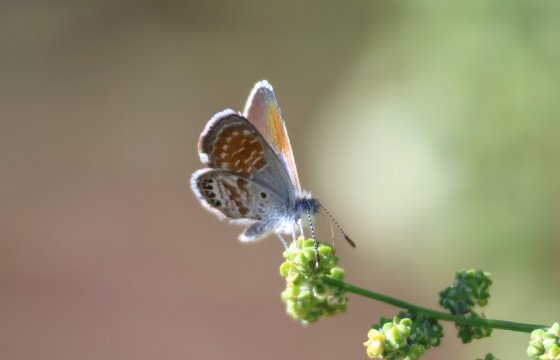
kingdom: Animalia
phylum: Arthropoda
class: Insecta
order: Lepidoptera
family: Lycaenidae
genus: Brephidium
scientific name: Brephidium exilis
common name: Western Pygmy-Blue
